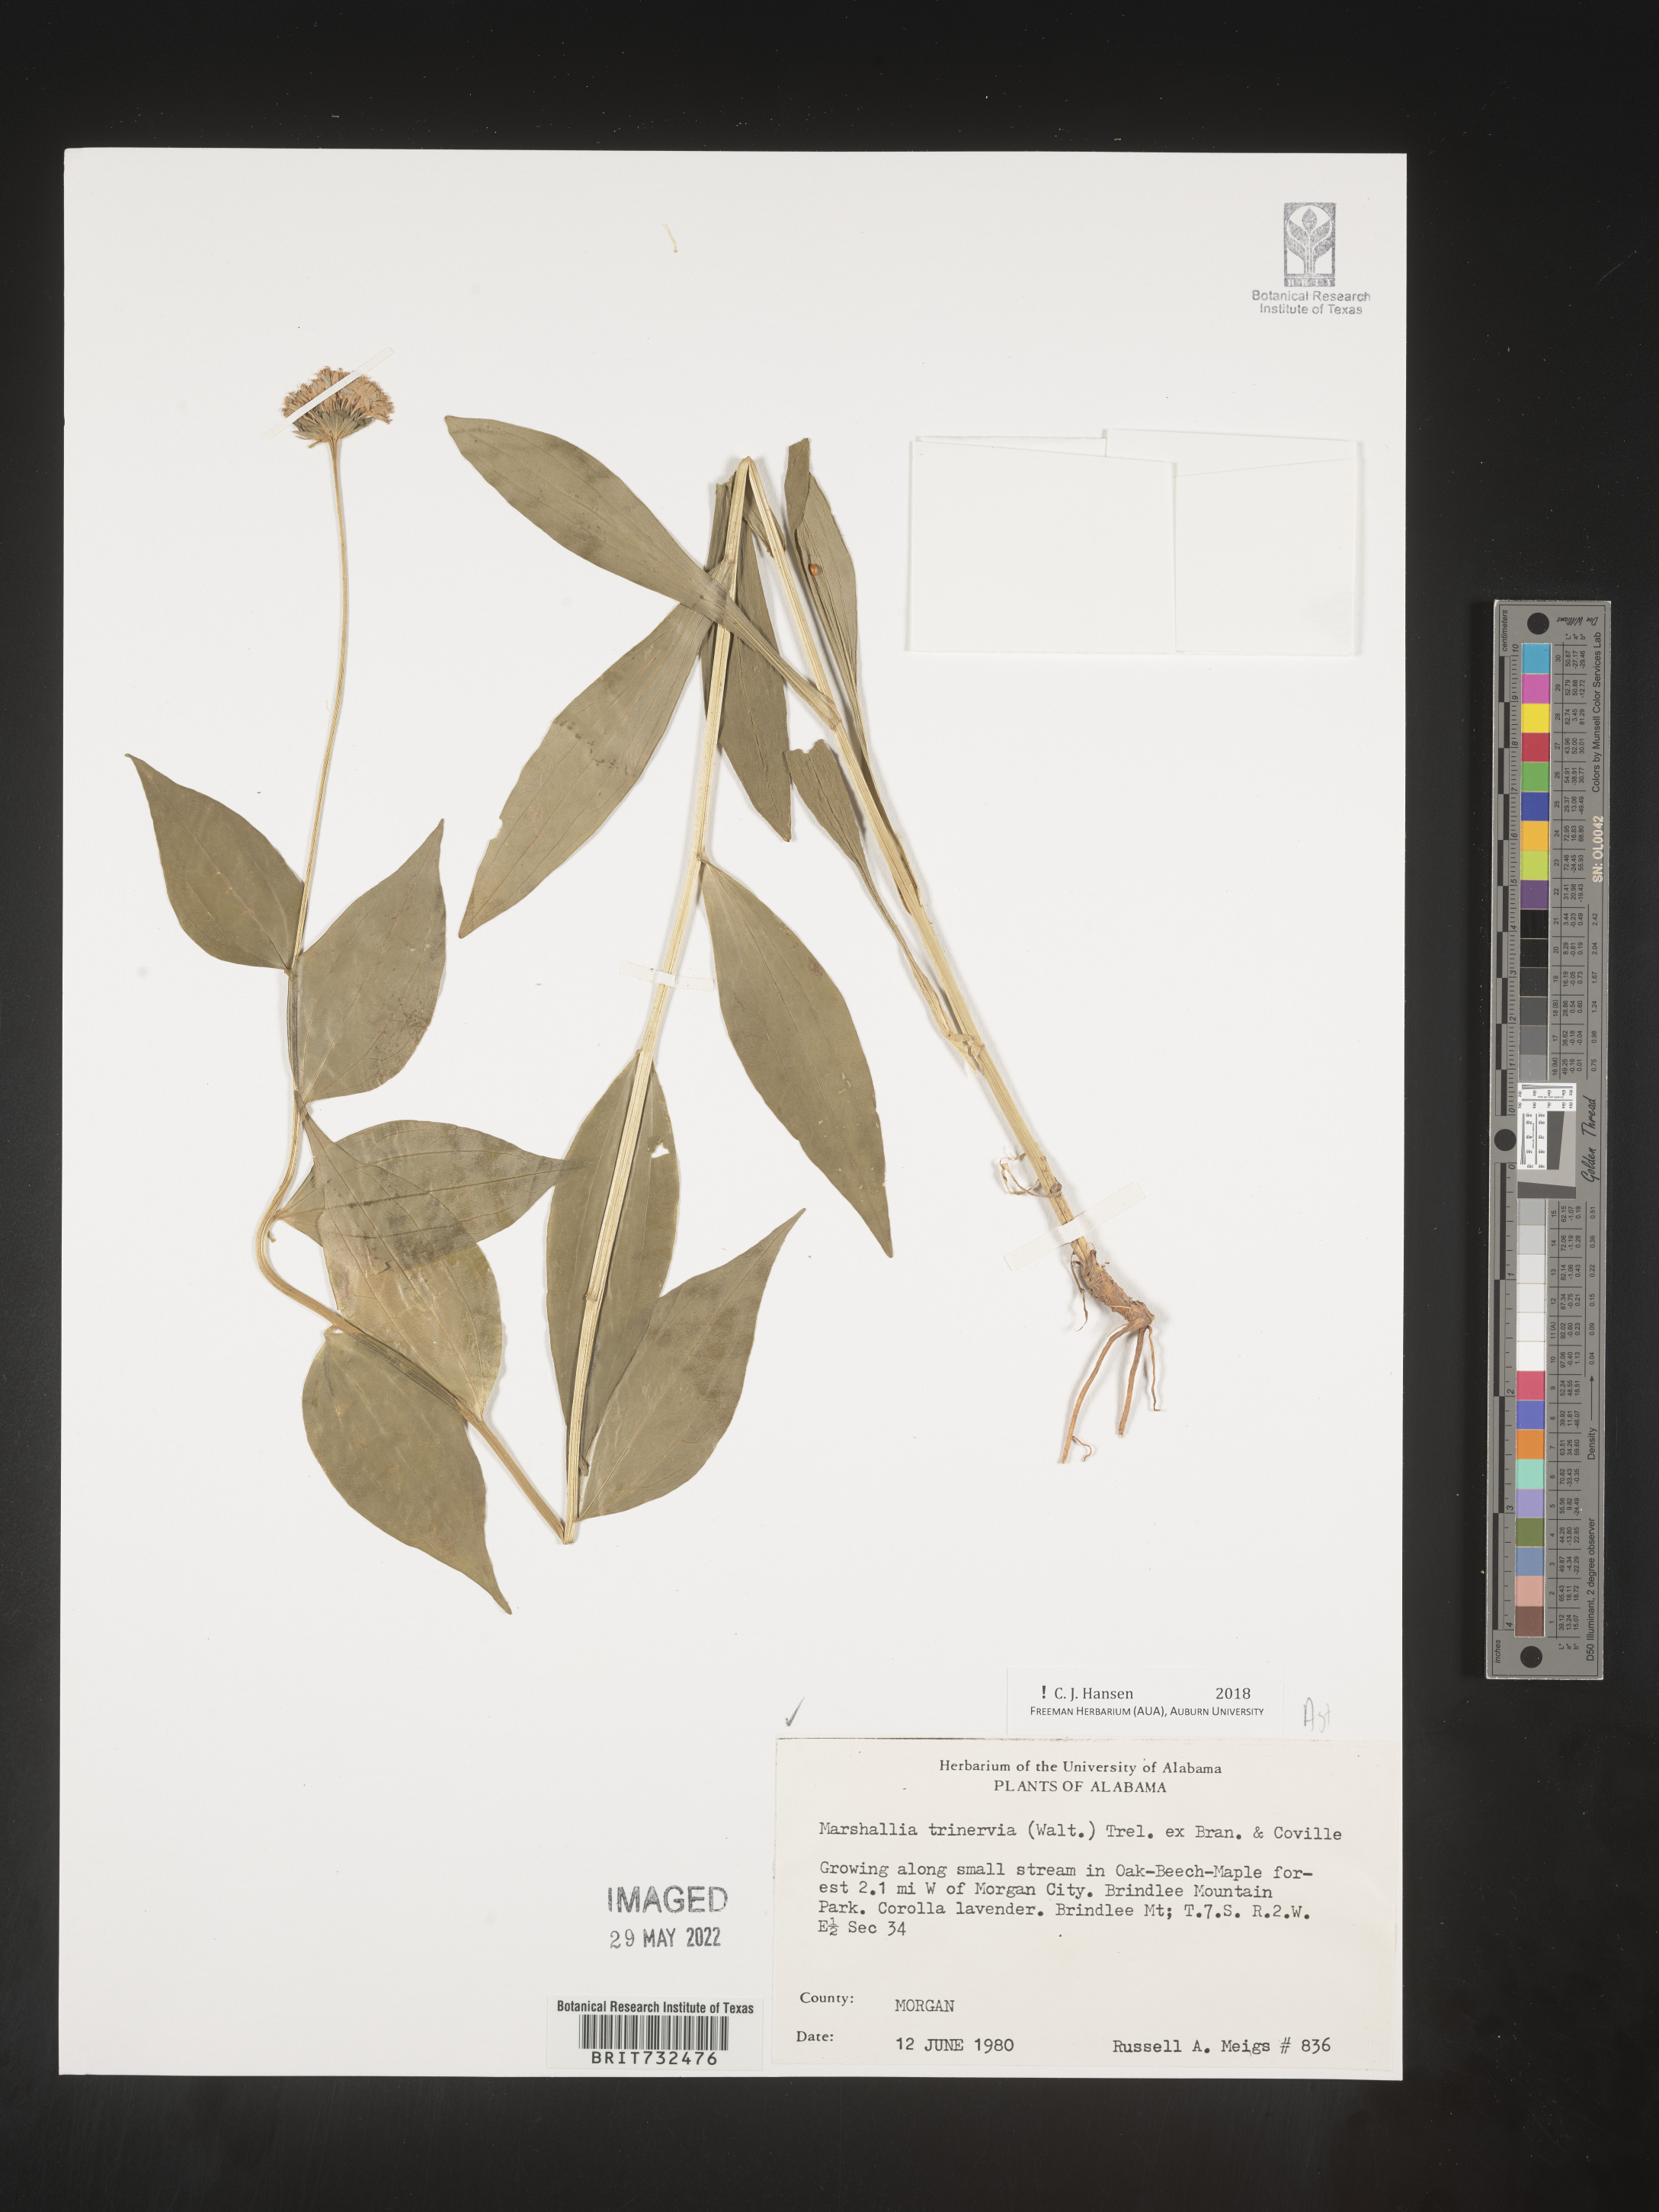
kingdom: Plantae
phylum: Tracheophyta
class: Magnoliopsida
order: Asterales
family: Asteraceae
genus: Marshallia
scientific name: Marshallia trinervia
